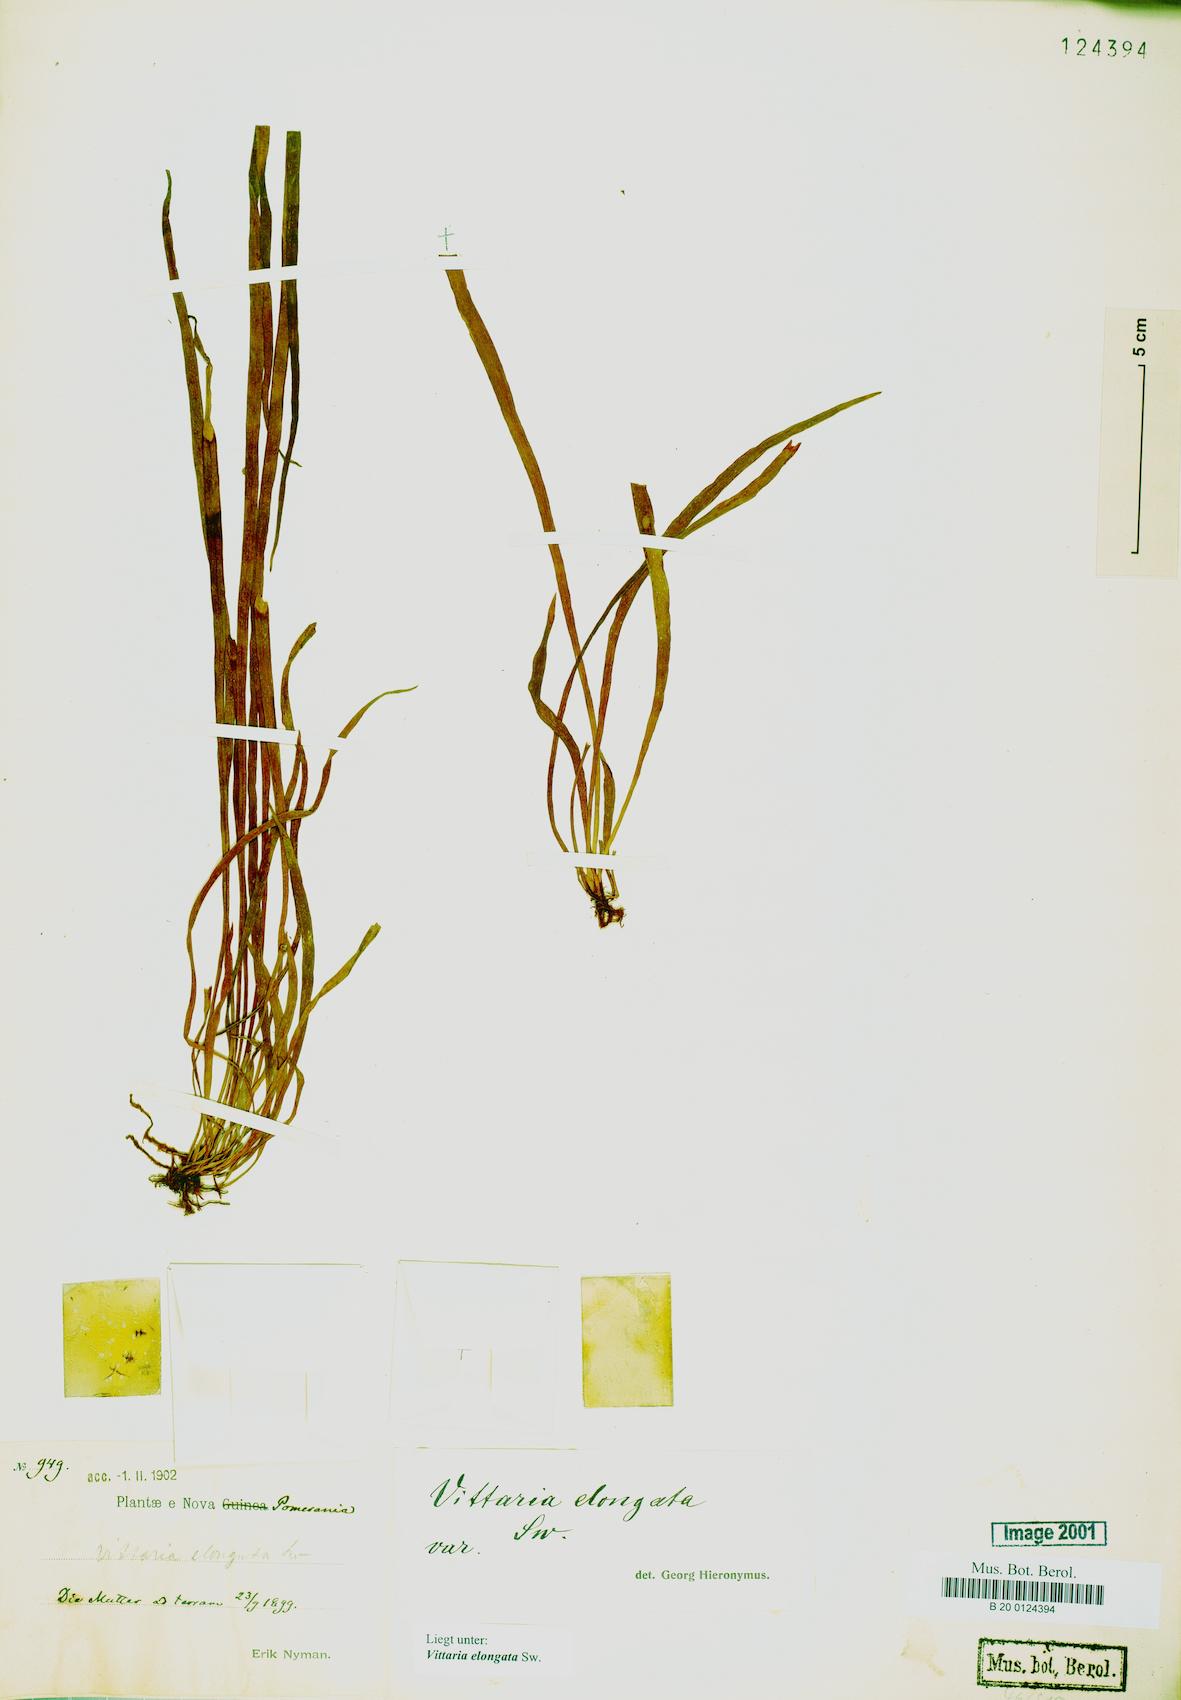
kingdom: Plantae
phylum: Tracheophyta
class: Polypodiopsida
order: Polypodiales
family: Pteridaceae
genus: Haplopteris
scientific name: Haplopteris elongata
